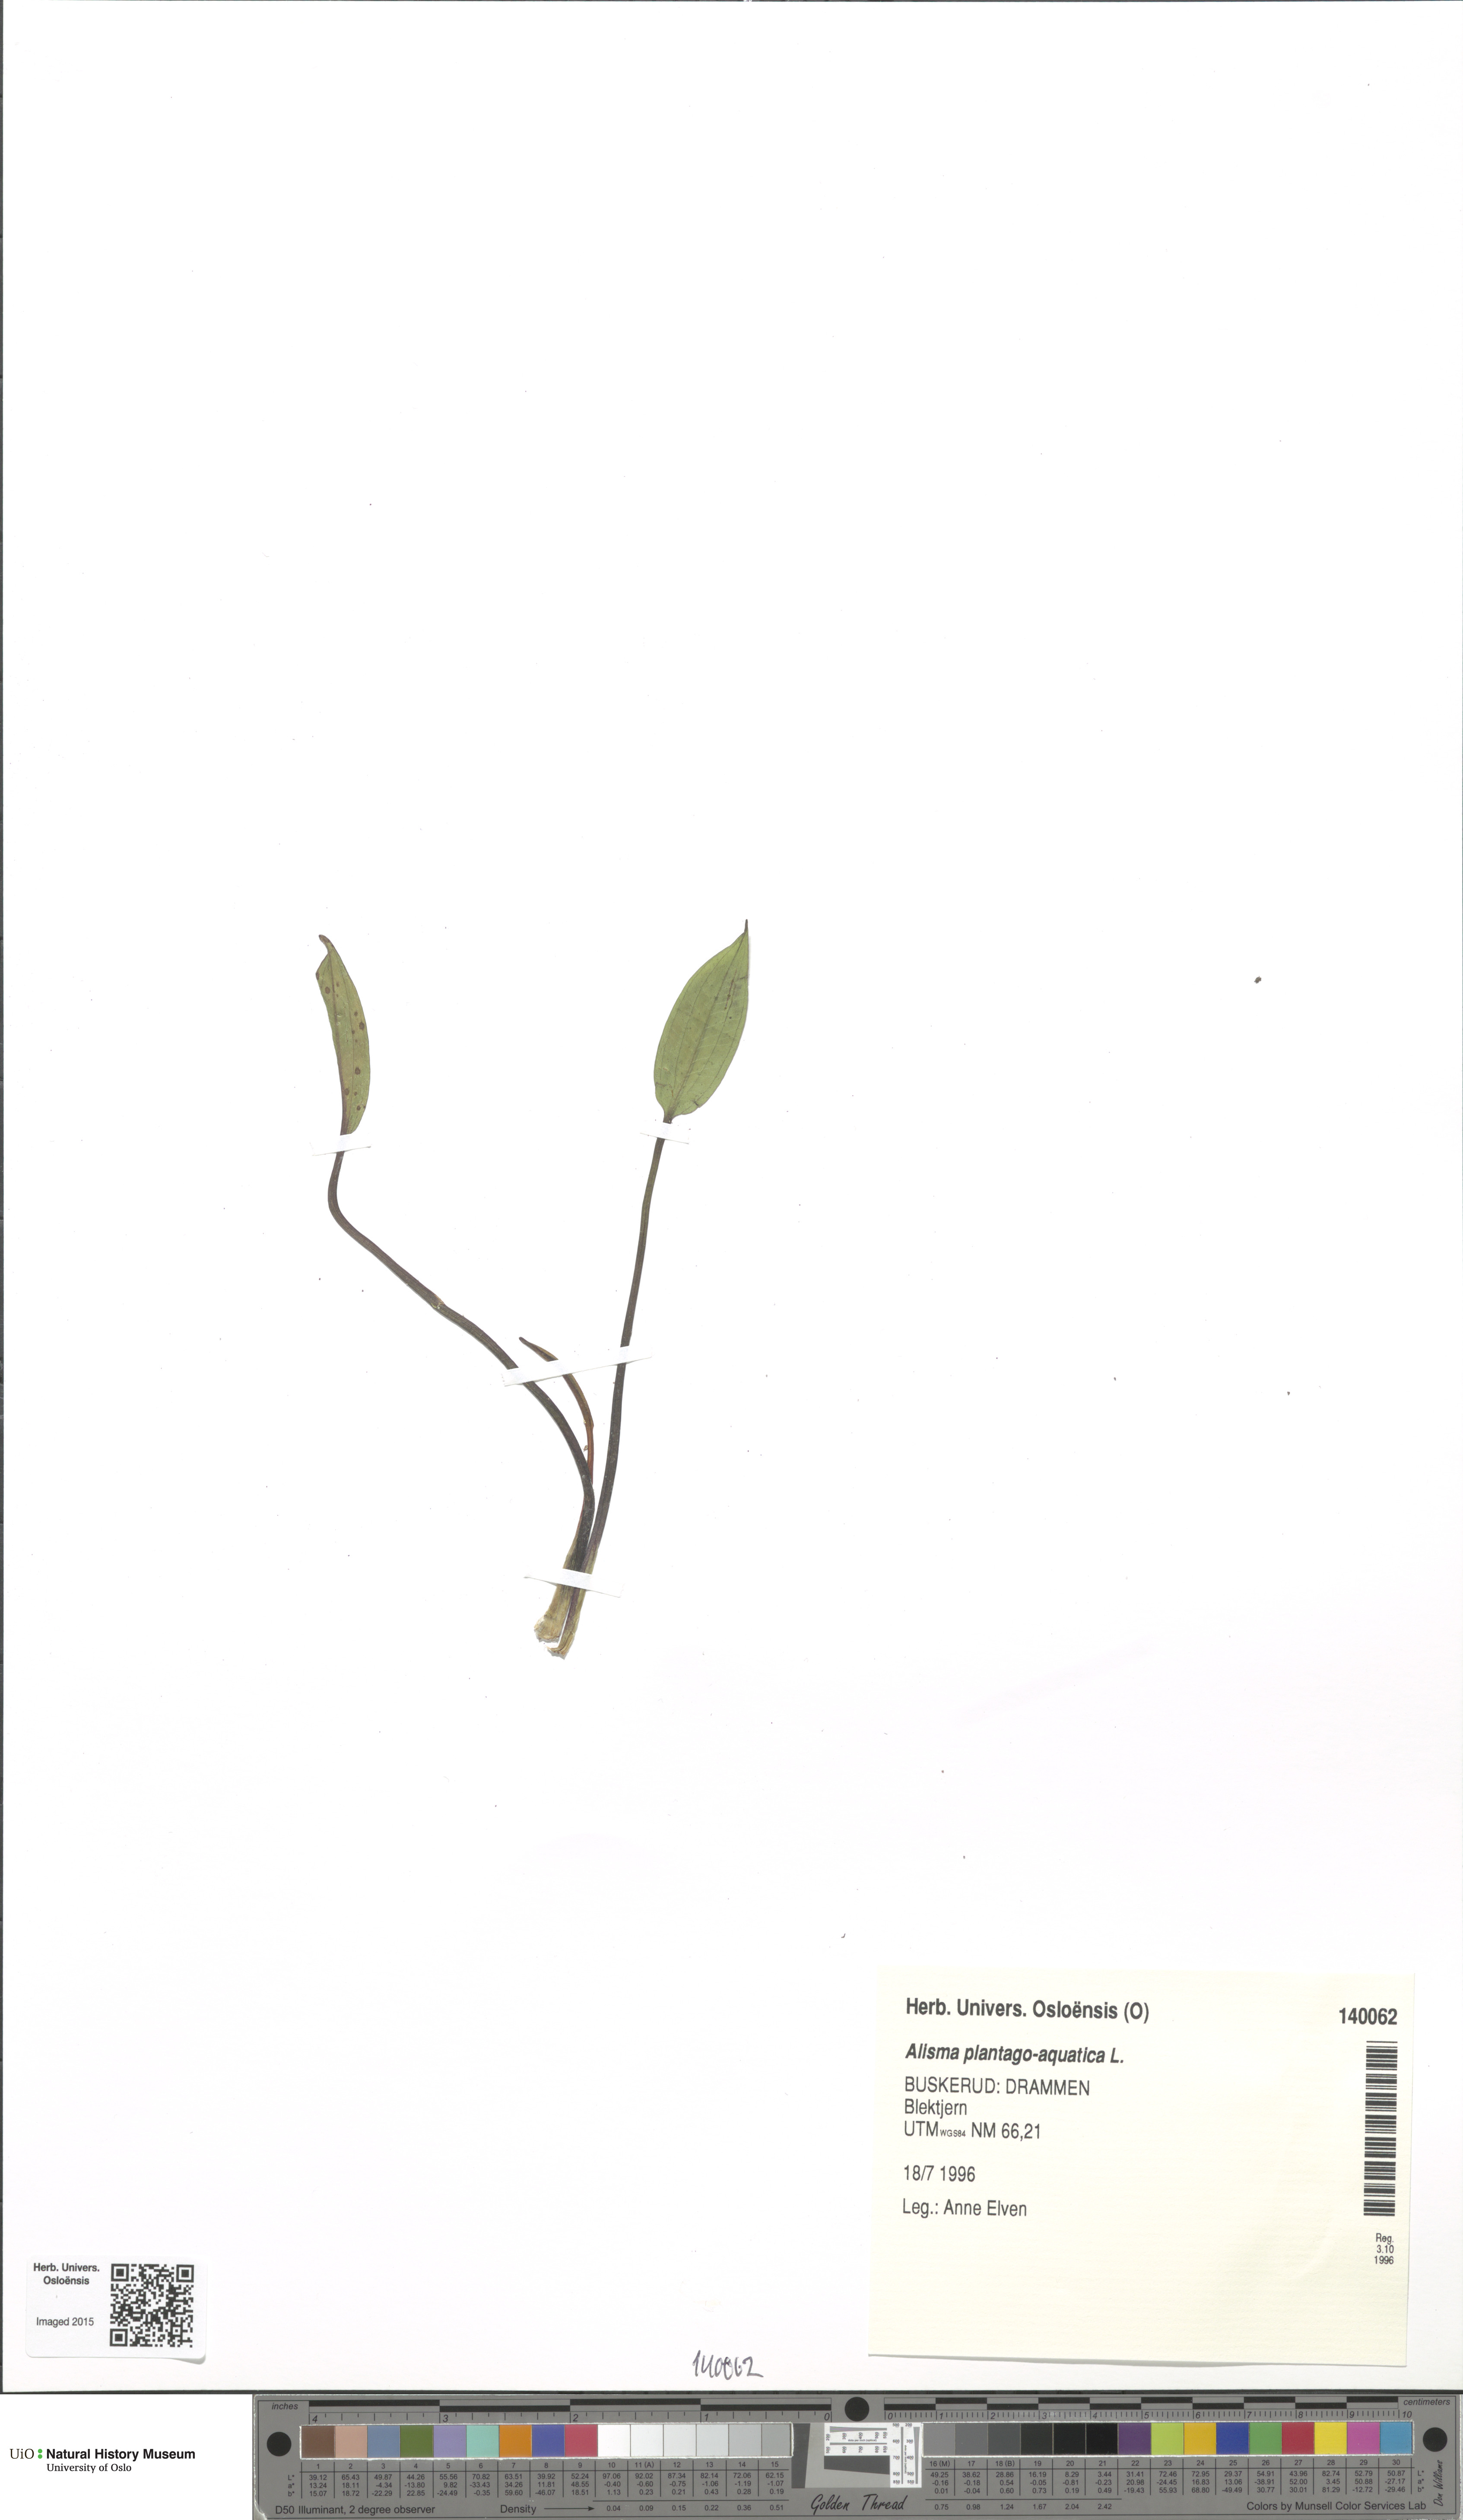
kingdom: Plantae
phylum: Tracheophyta
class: Liliopsida
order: Alismatales
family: Alismataceae
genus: Alisma
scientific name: Alisma plantago-aquatica
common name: Water-plantain
